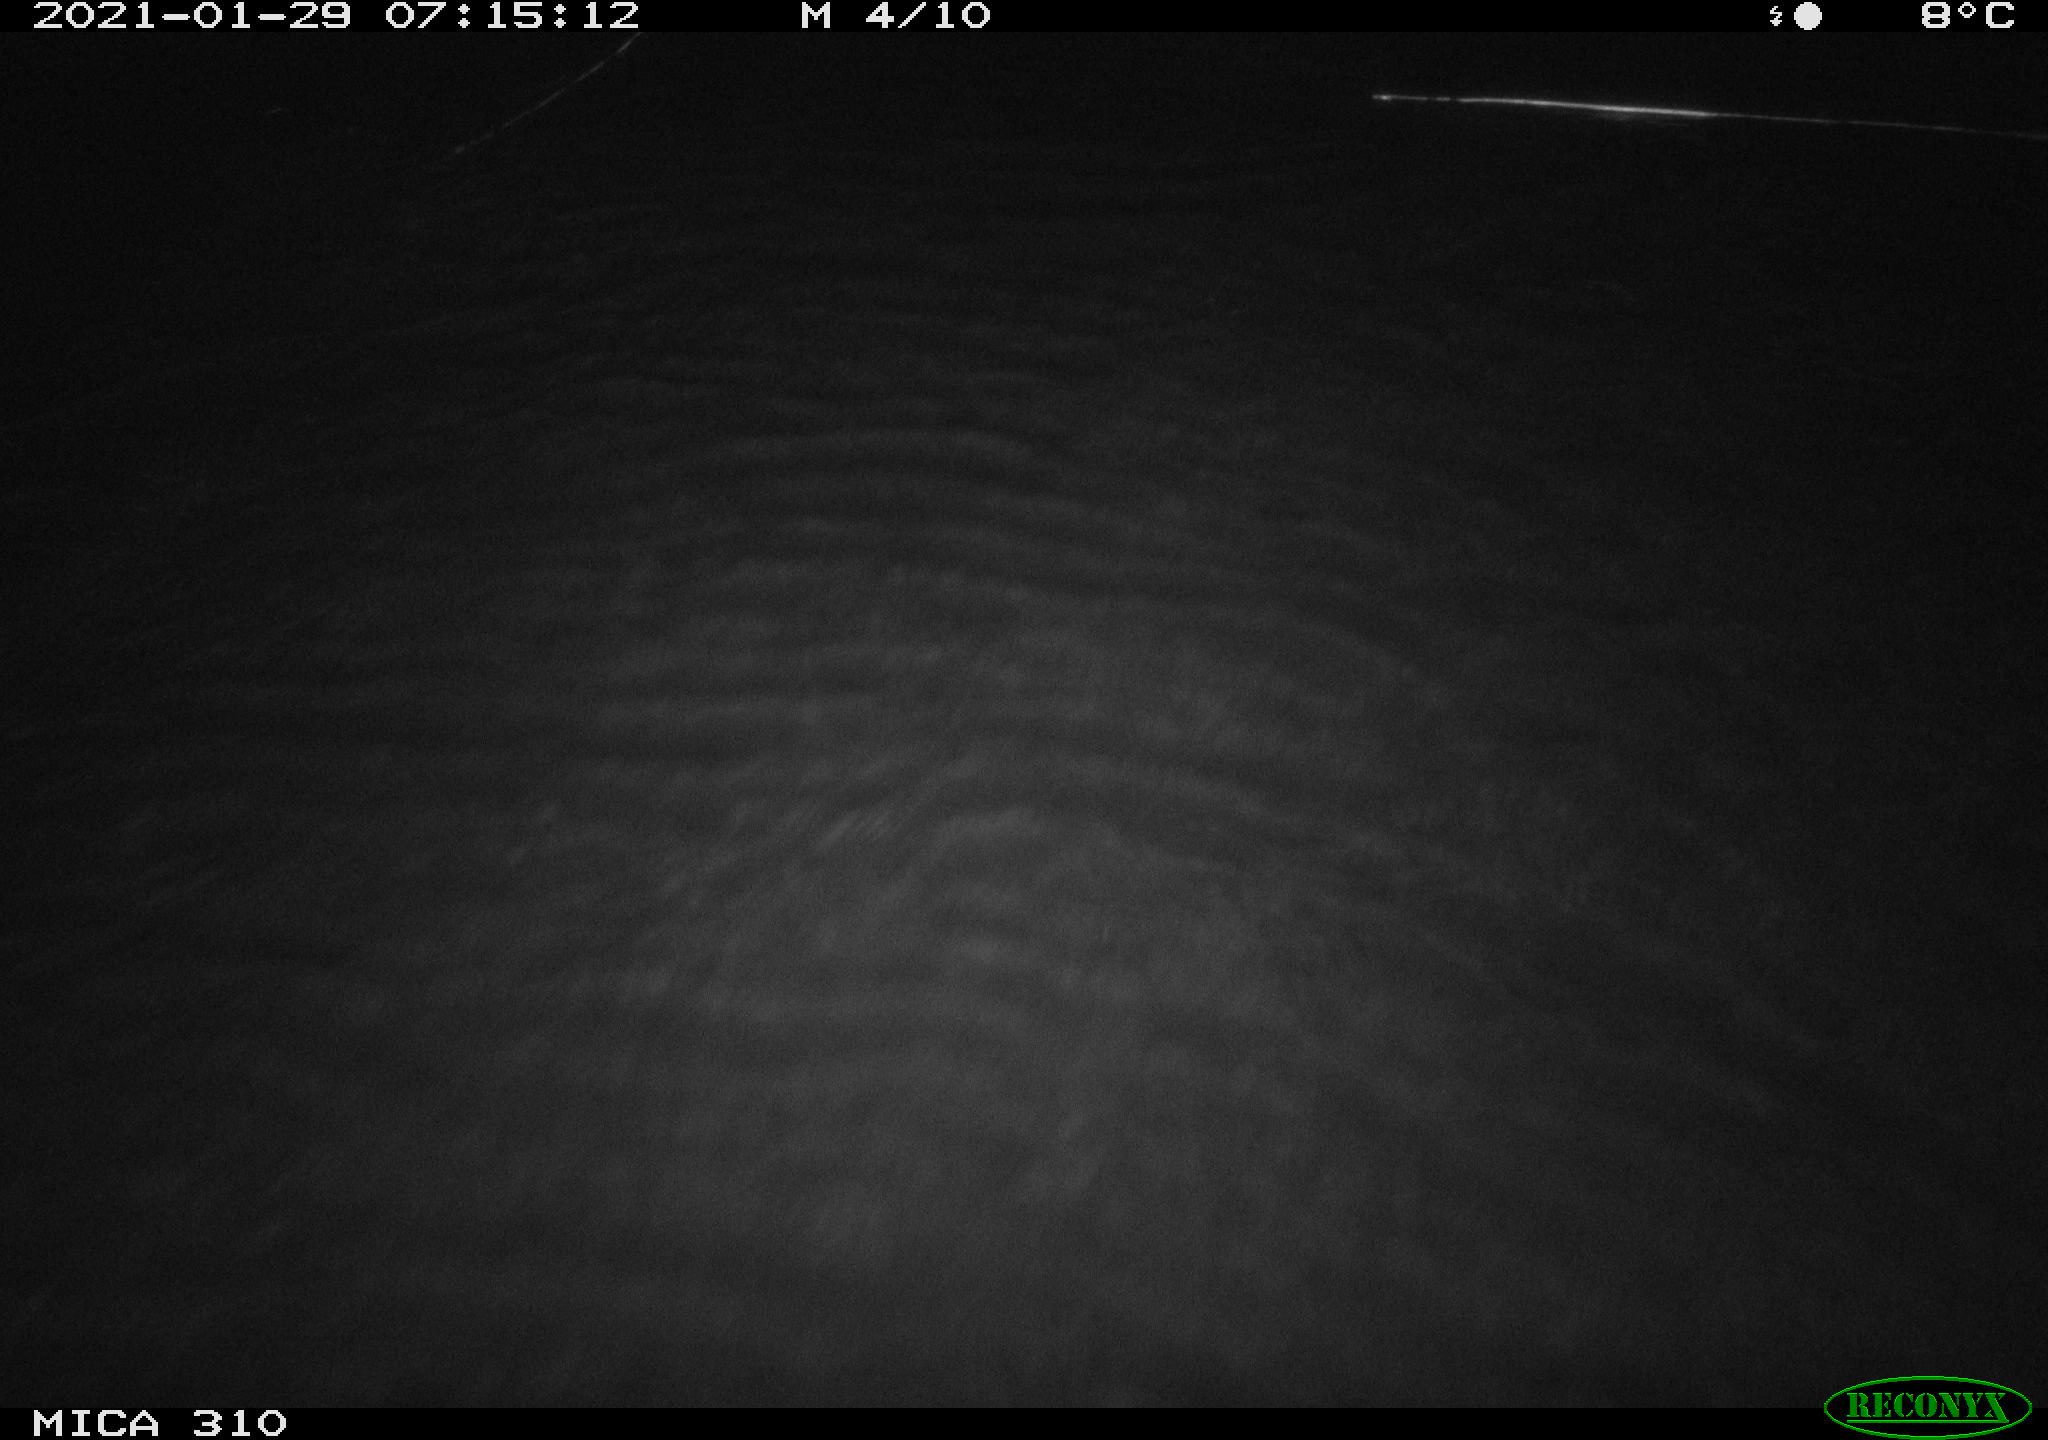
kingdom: Animalia
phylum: Chordata
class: Mammalia
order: Rodentia
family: Muridae
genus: Rattus
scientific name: Rattus norvegicus
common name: Brown rat
